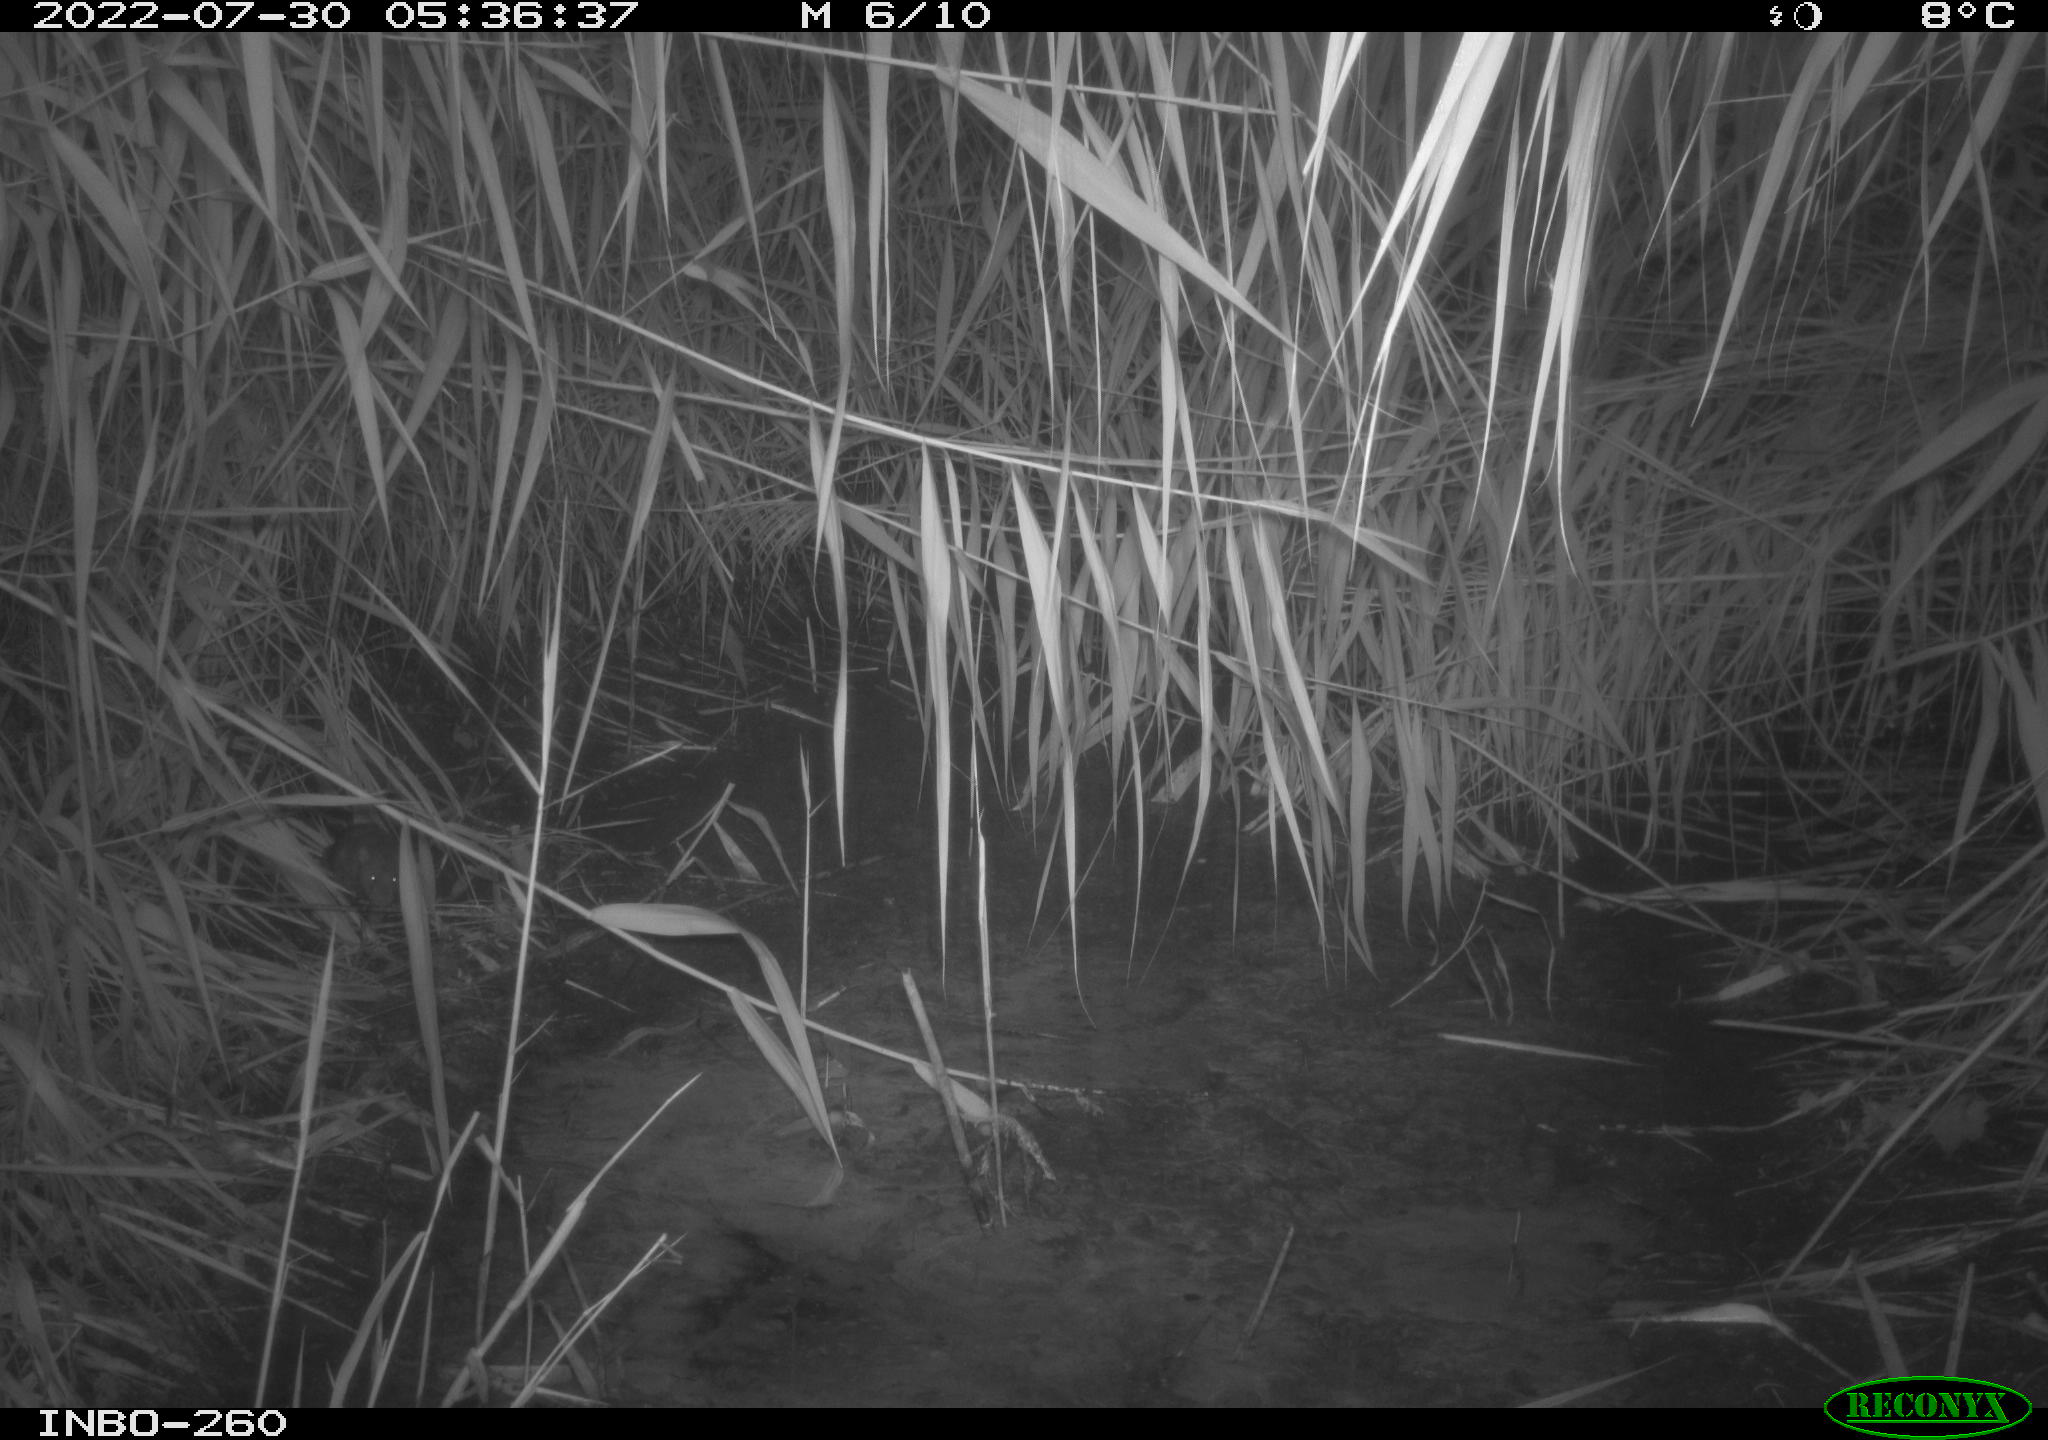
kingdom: Animalia
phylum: Chordata
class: Mammalia
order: Rodentia
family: Muridae
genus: Rattus
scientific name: Rattus norvegicus
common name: Brown rat
